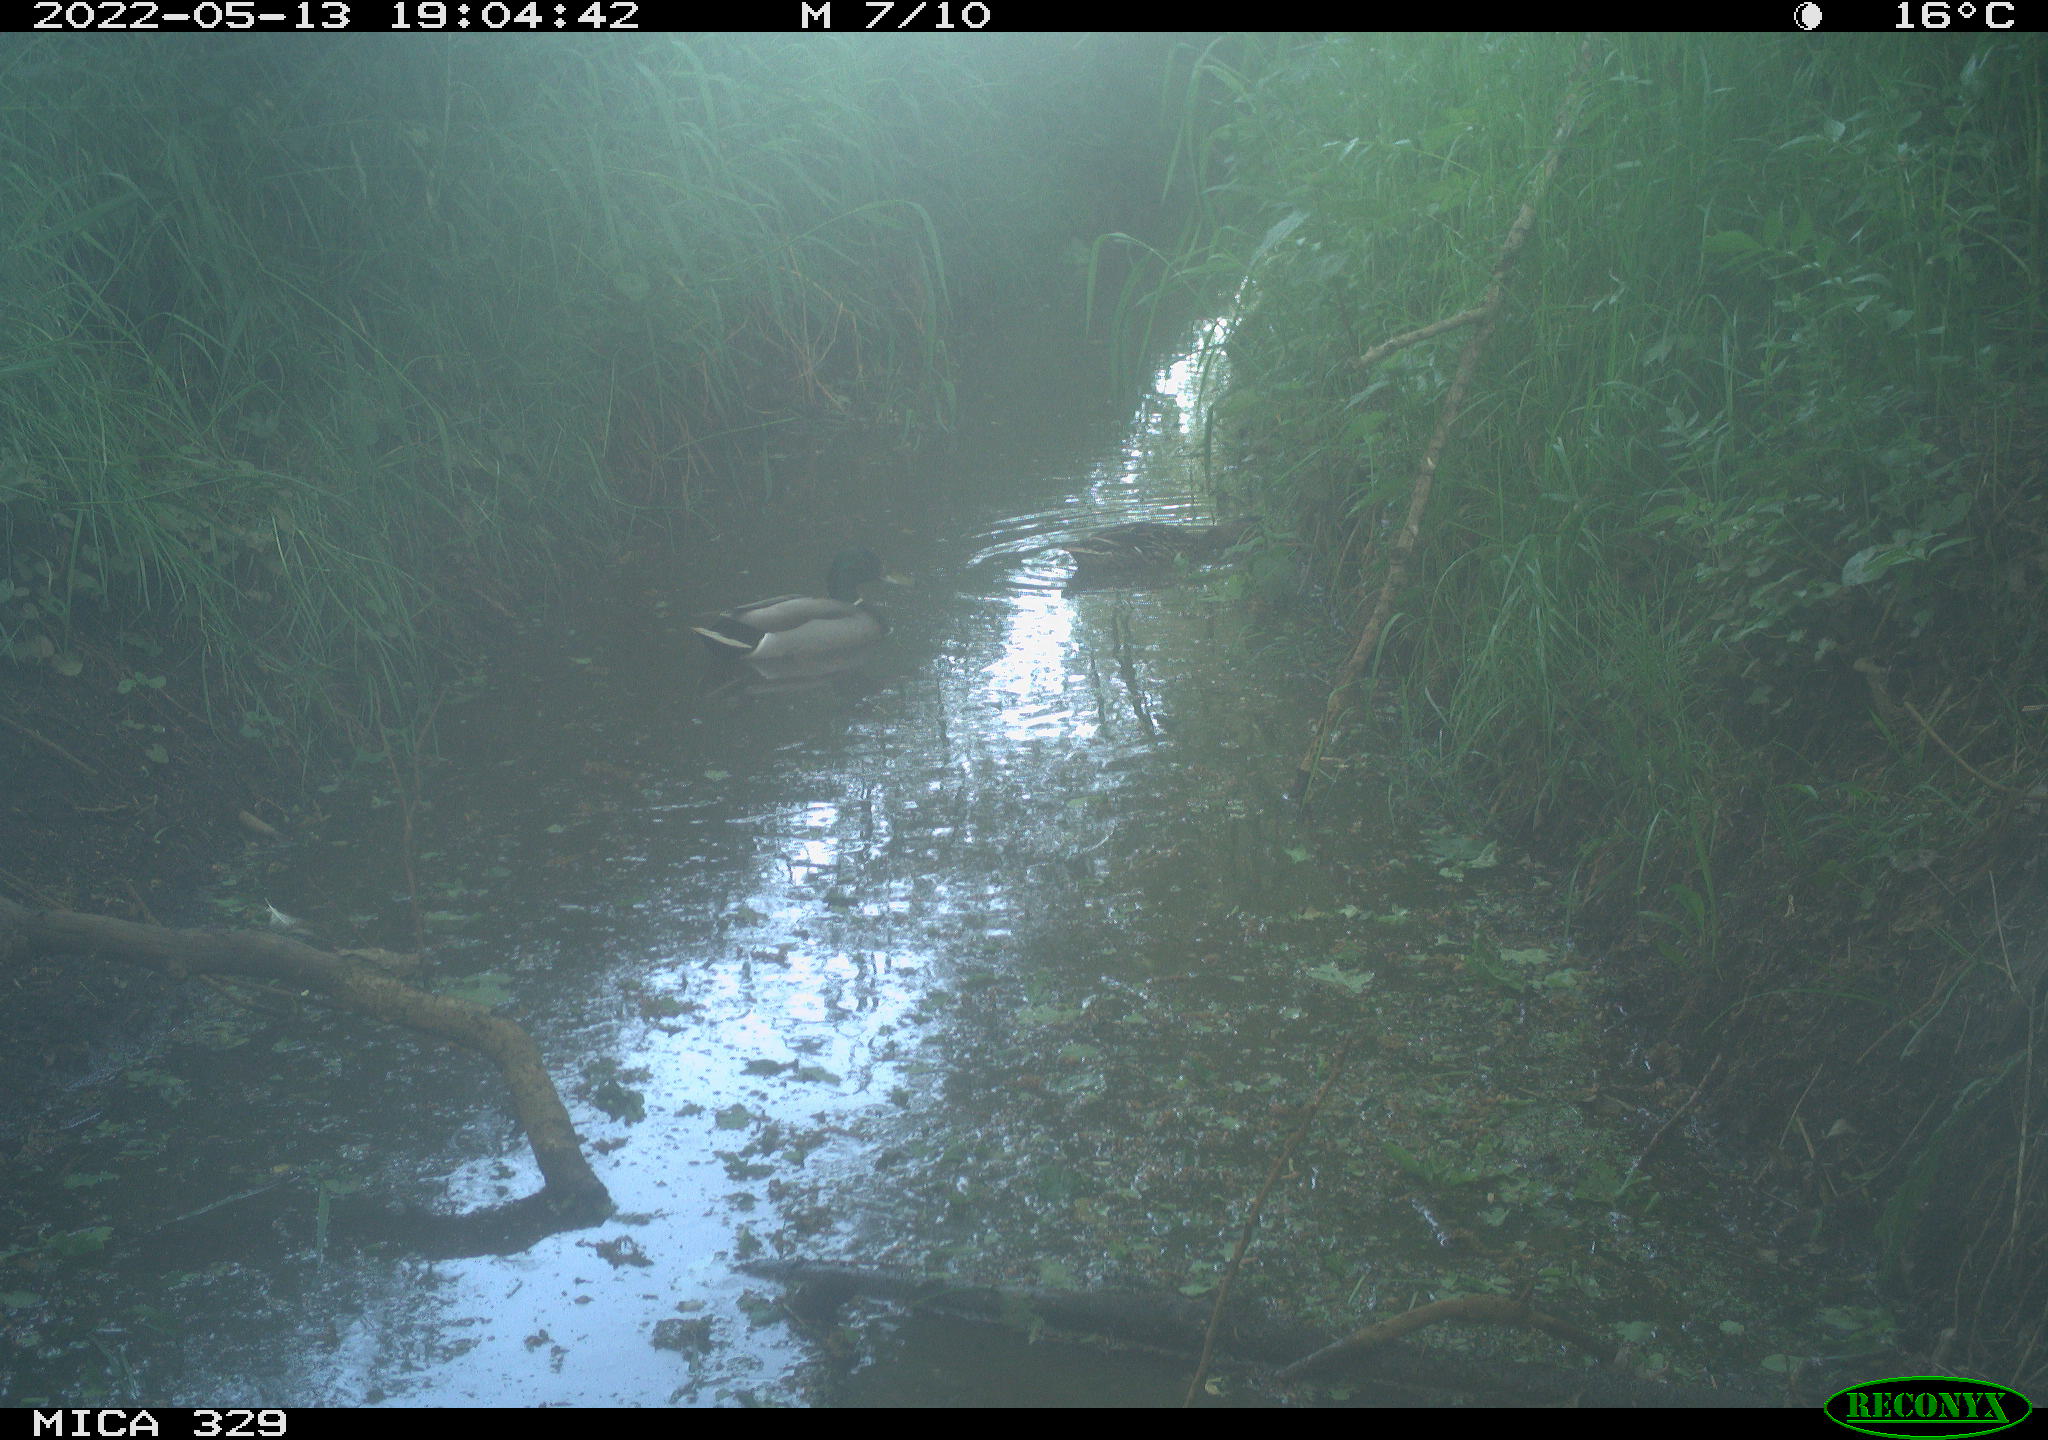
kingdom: Animalia
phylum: Chordata
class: Aves
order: Anseriformes
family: Anatidae
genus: Anas
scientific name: Anas platyrhynchos
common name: Mallard
